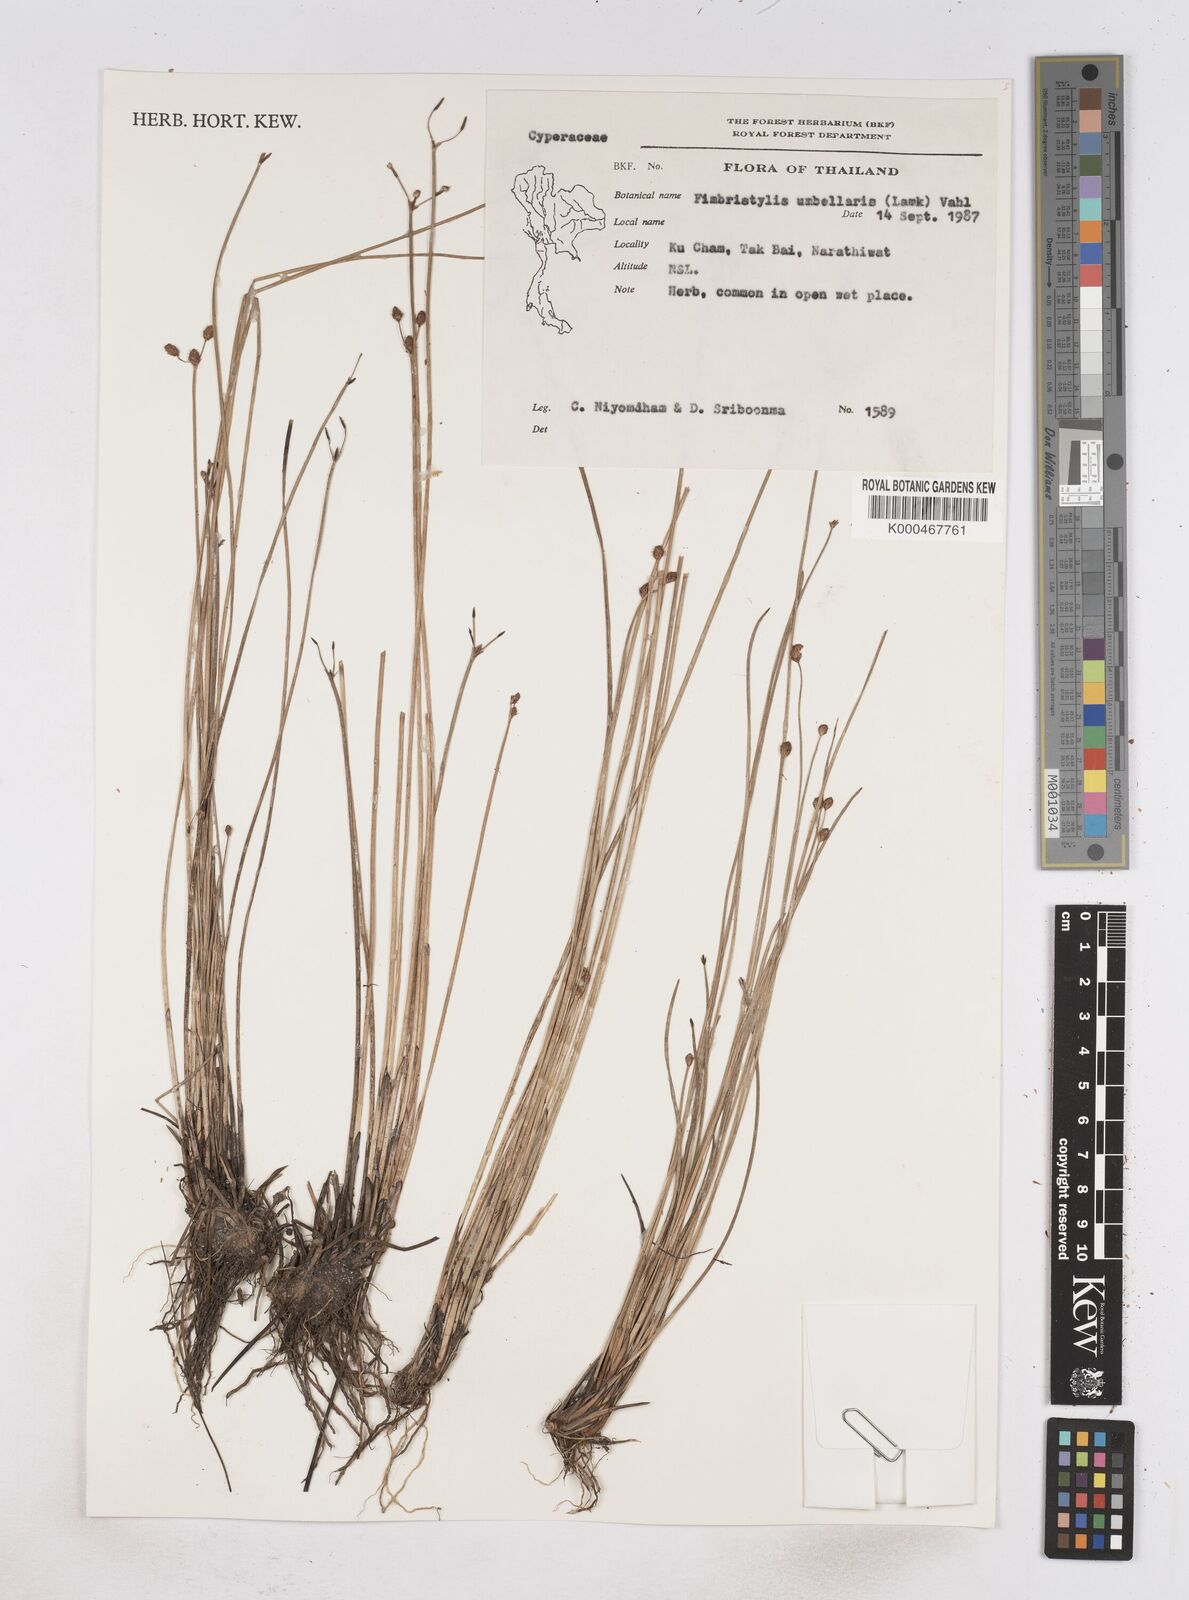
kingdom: Plantae
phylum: Tracheophyta
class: Liliopsida
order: Poales
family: Cyperaceae
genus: Fimbristylis
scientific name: Fimbristylis umbellaris
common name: Globular fimbristylis
